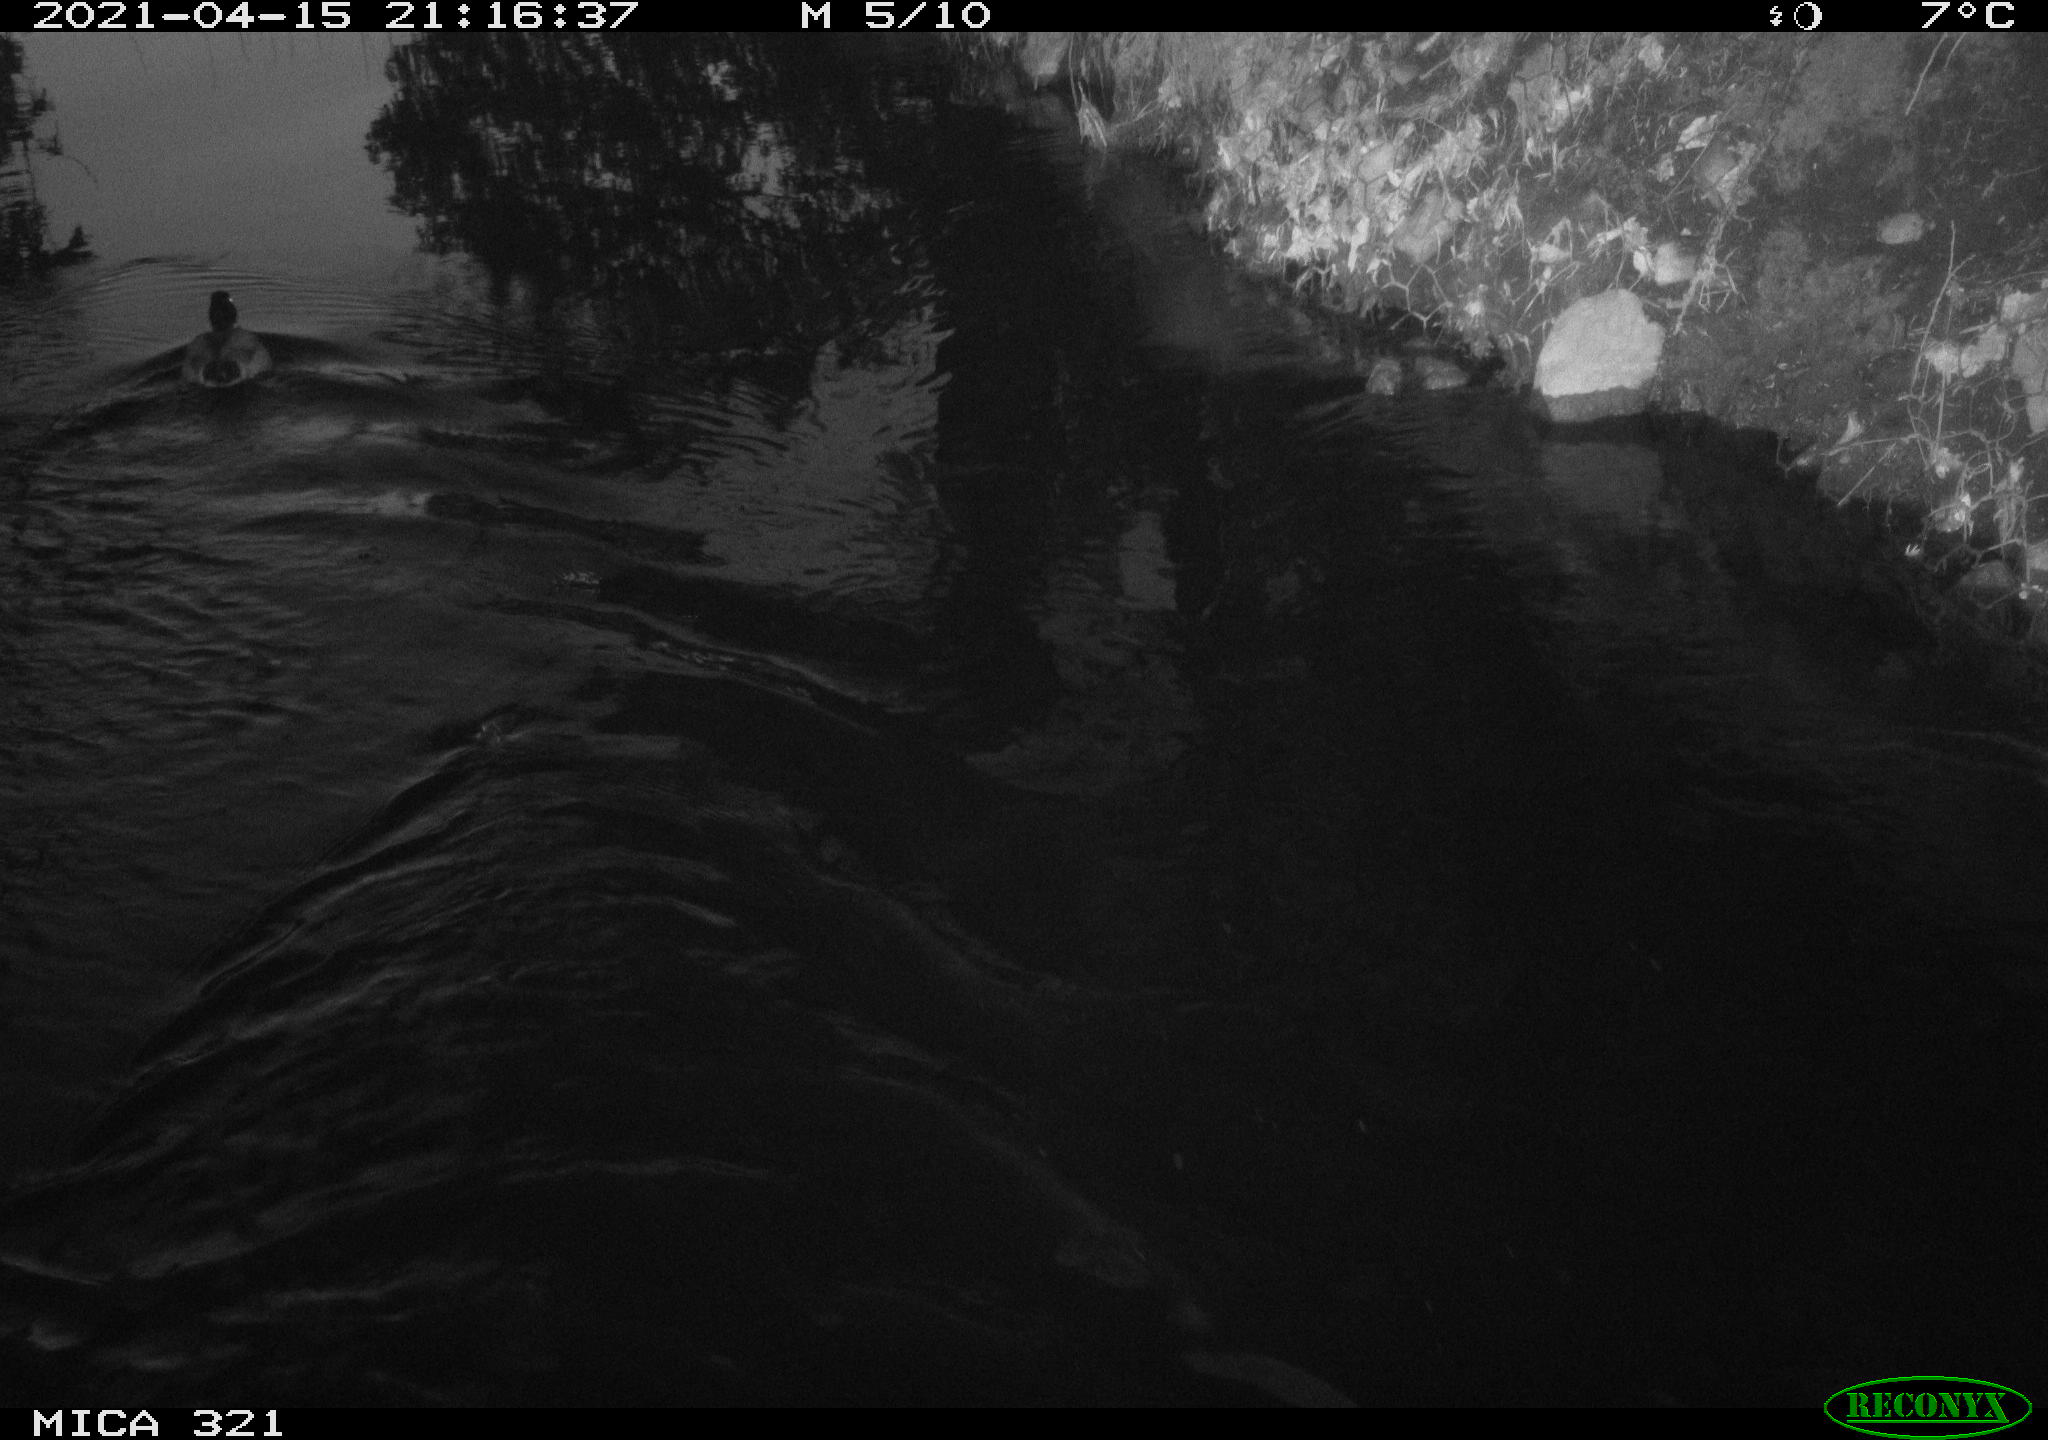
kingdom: Animalia
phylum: Chordata
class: Aves
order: Anseriformes
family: Anatidae
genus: Anas
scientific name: Anas
